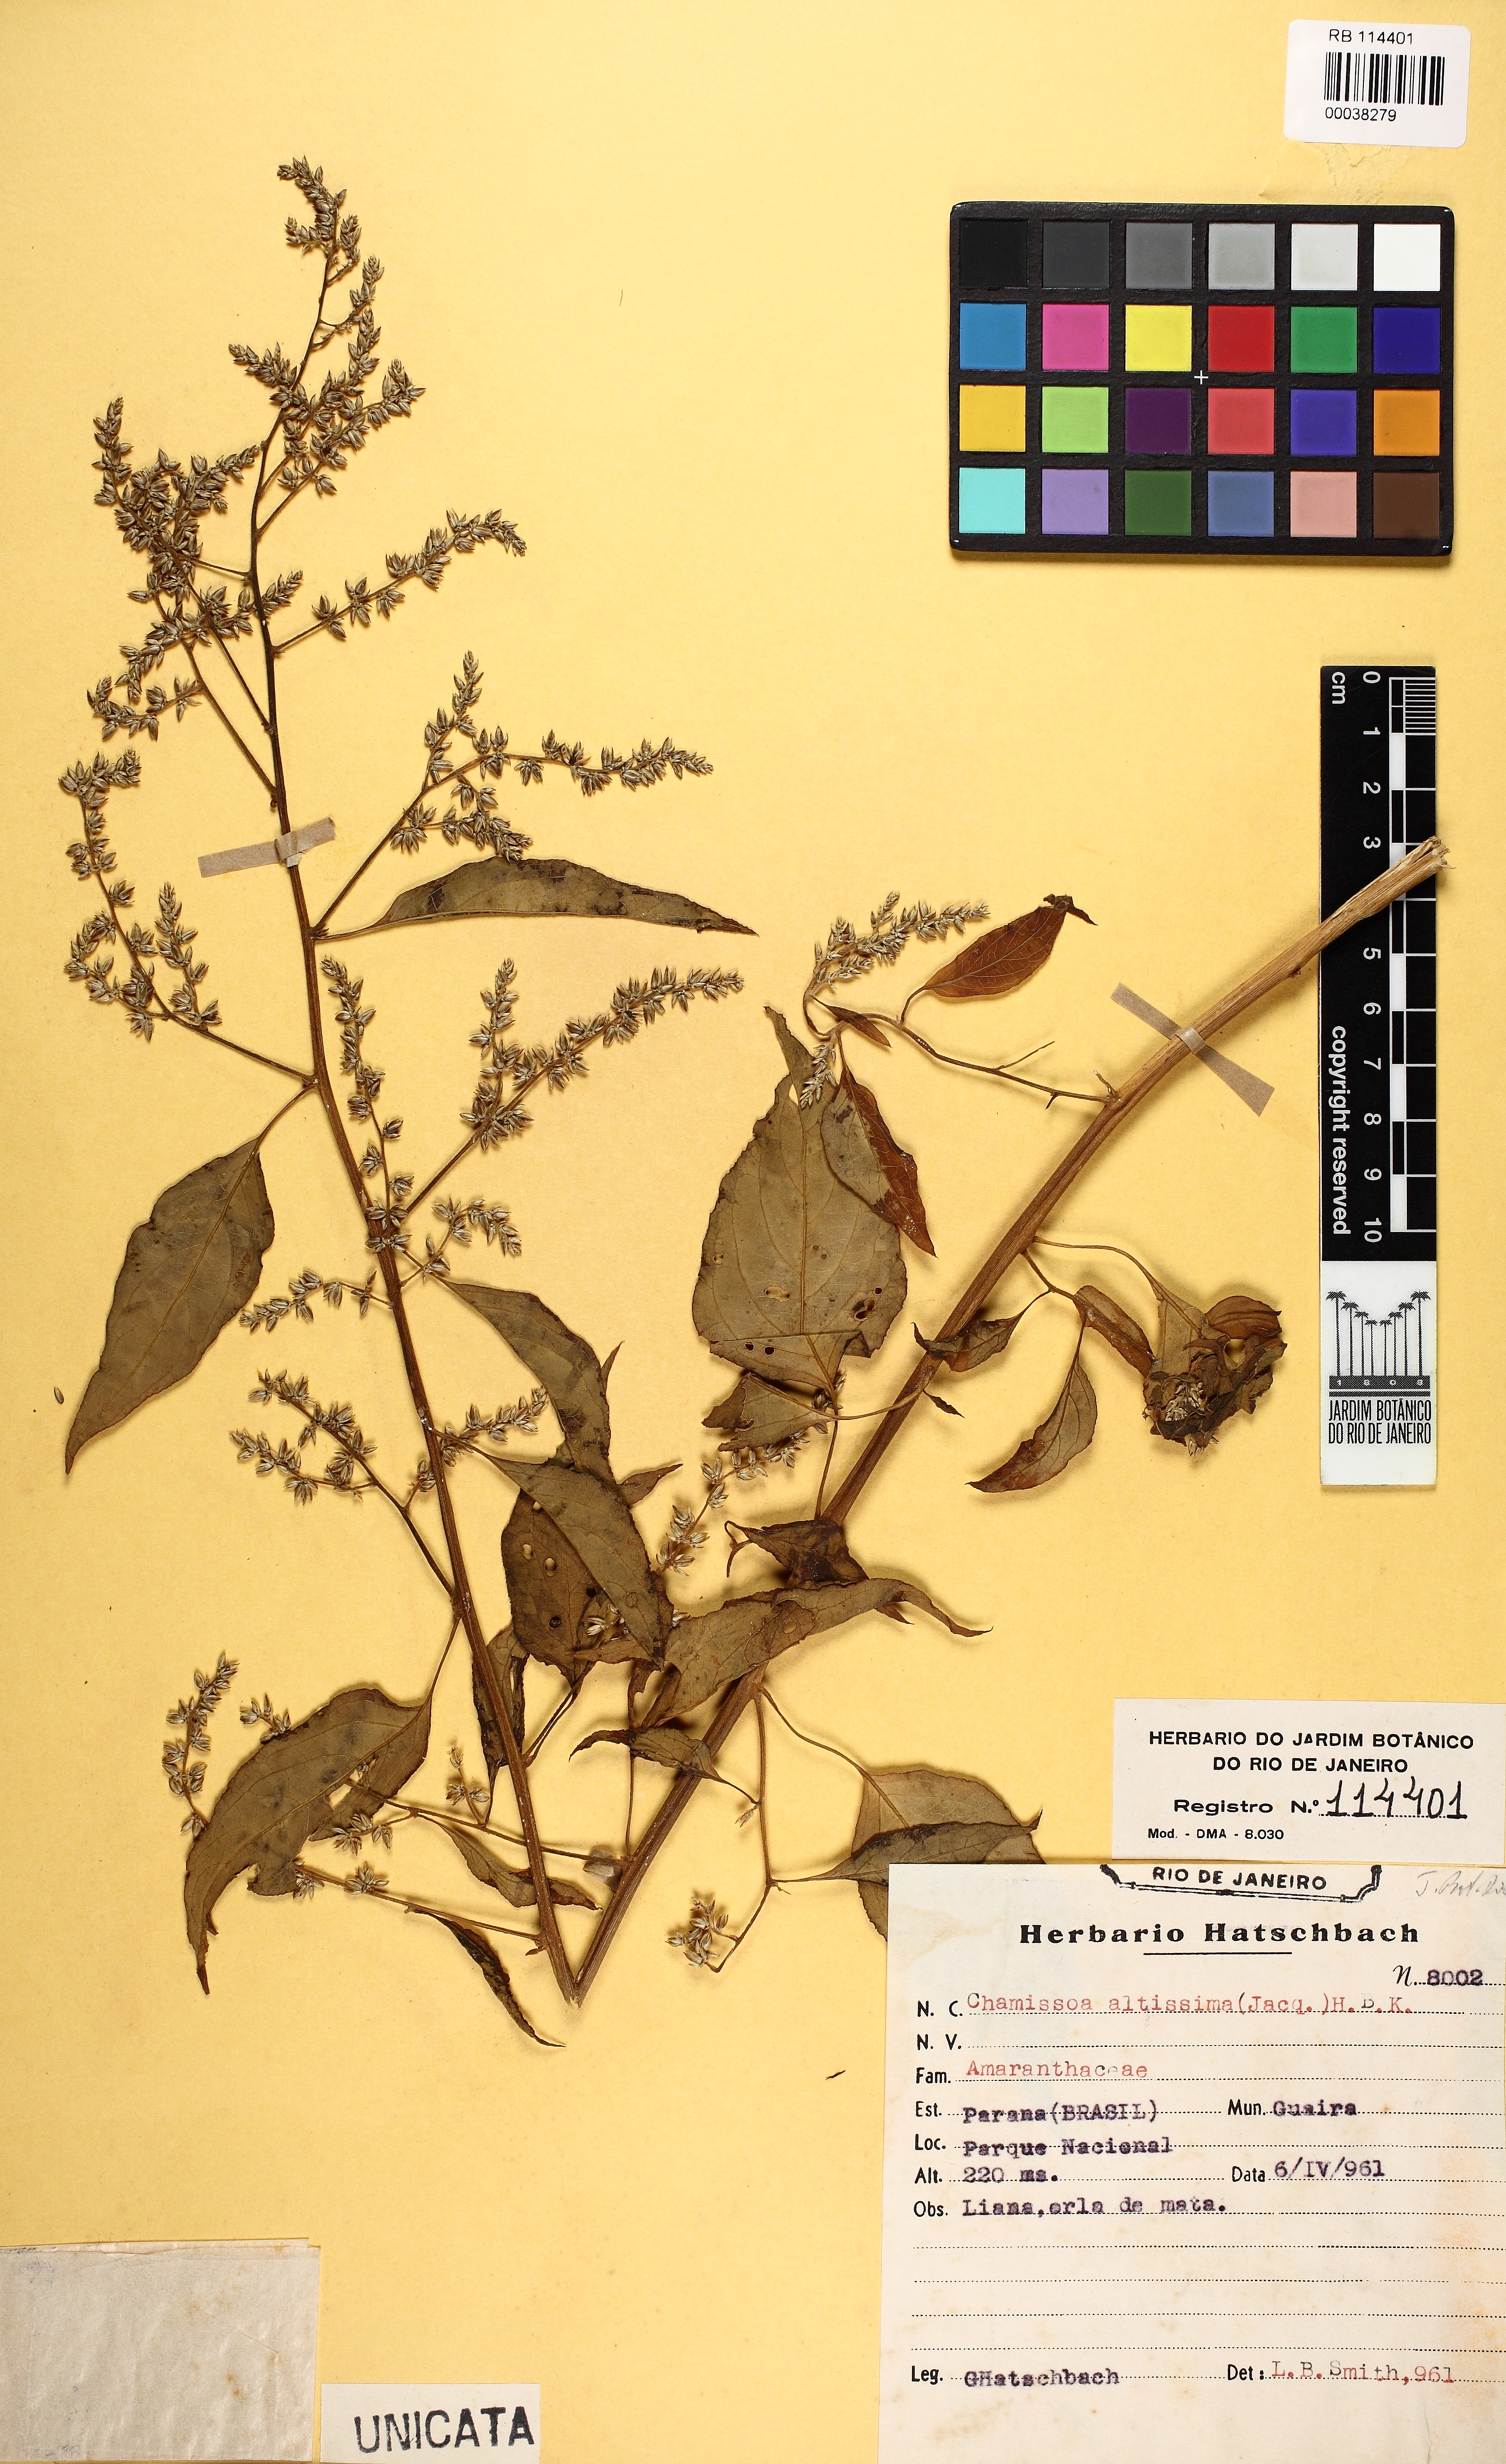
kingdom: Plantae
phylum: Tracheophyta
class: Magnoliopsida
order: Caryophyllales
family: Amaranthaceae
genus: Chamissoa
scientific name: Chamissoa altissima
